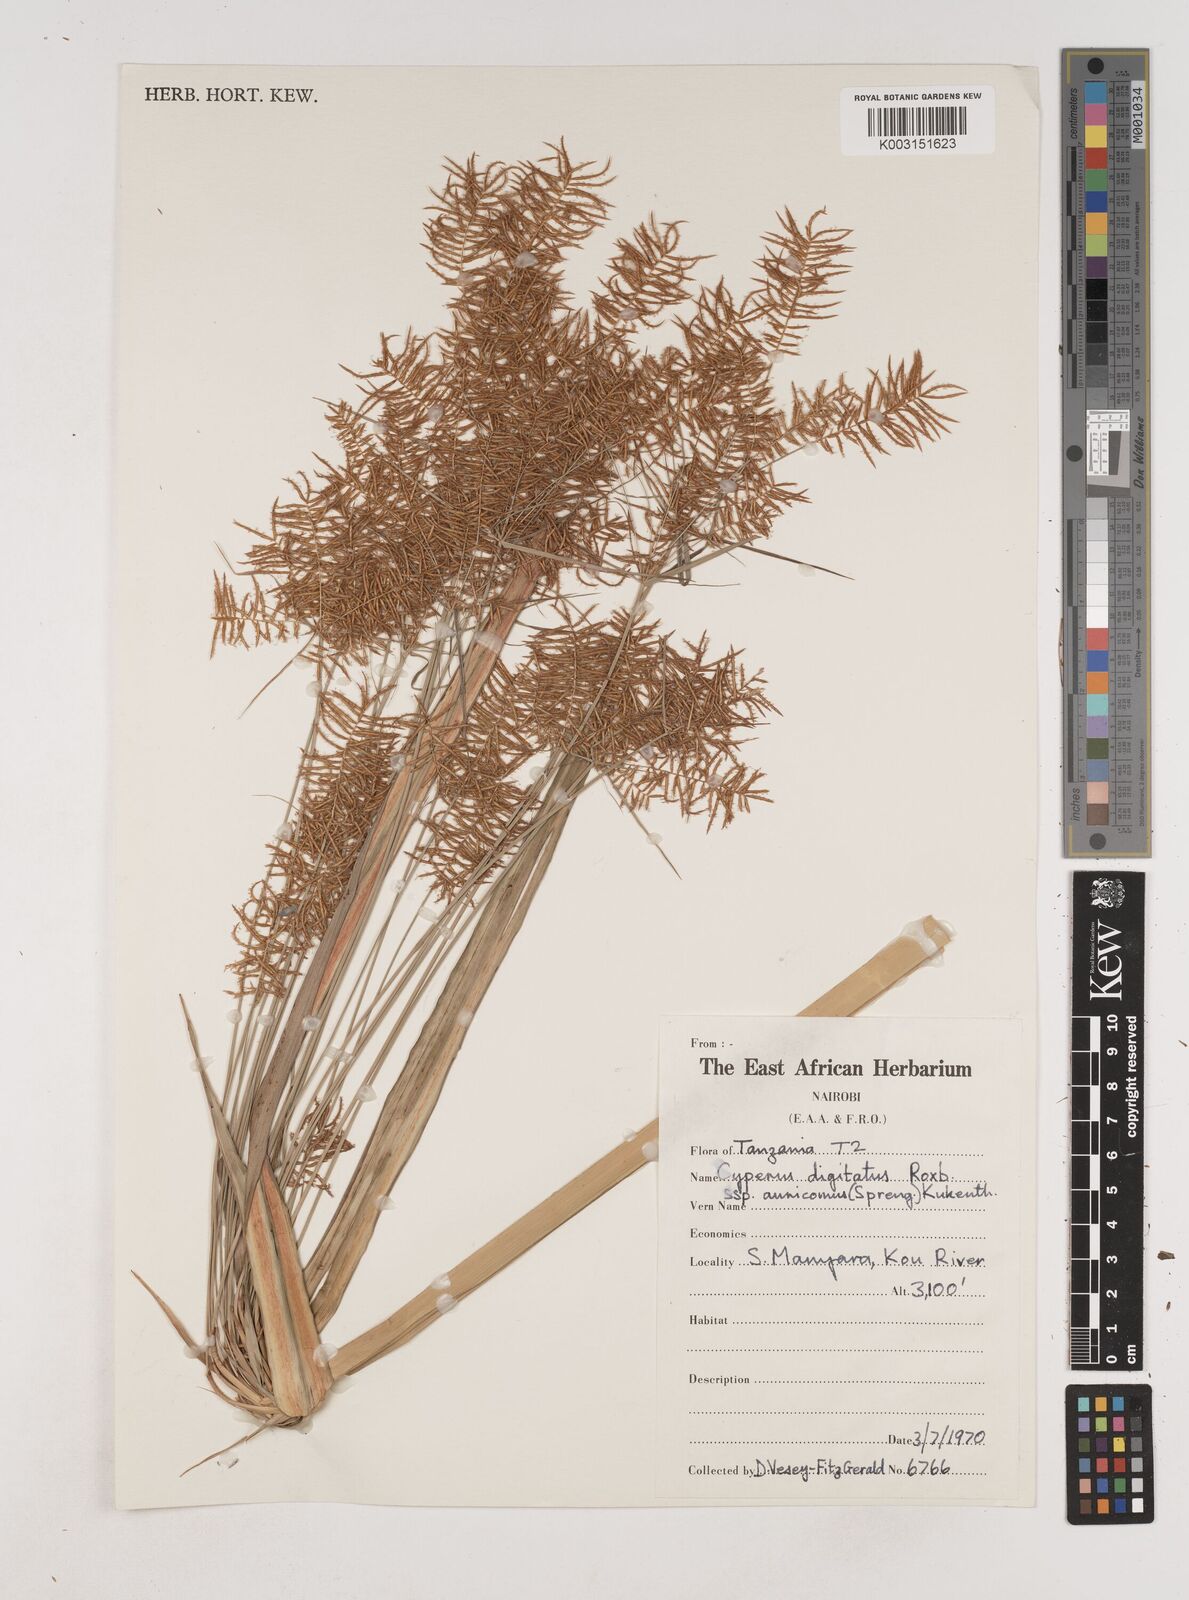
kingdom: Plantae
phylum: Tracheophyta
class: Liliopsida
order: Poales
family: Cyperaceae
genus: Cyperus
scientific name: Cyperus digitatus
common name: Finger flatsedge
